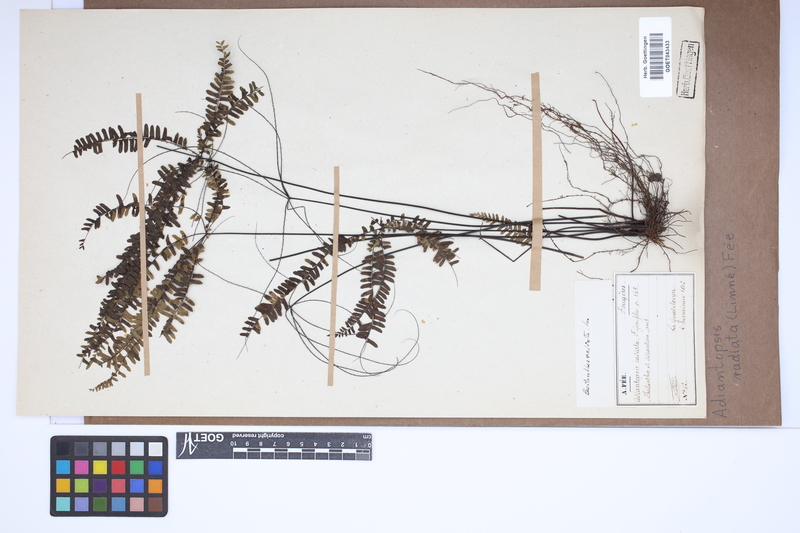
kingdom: Plantae
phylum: Tracheophyta
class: Polypodiopsida
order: Polypodiales
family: Pteridaceae
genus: Adiantopsis
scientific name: Adiantopsis radiata
